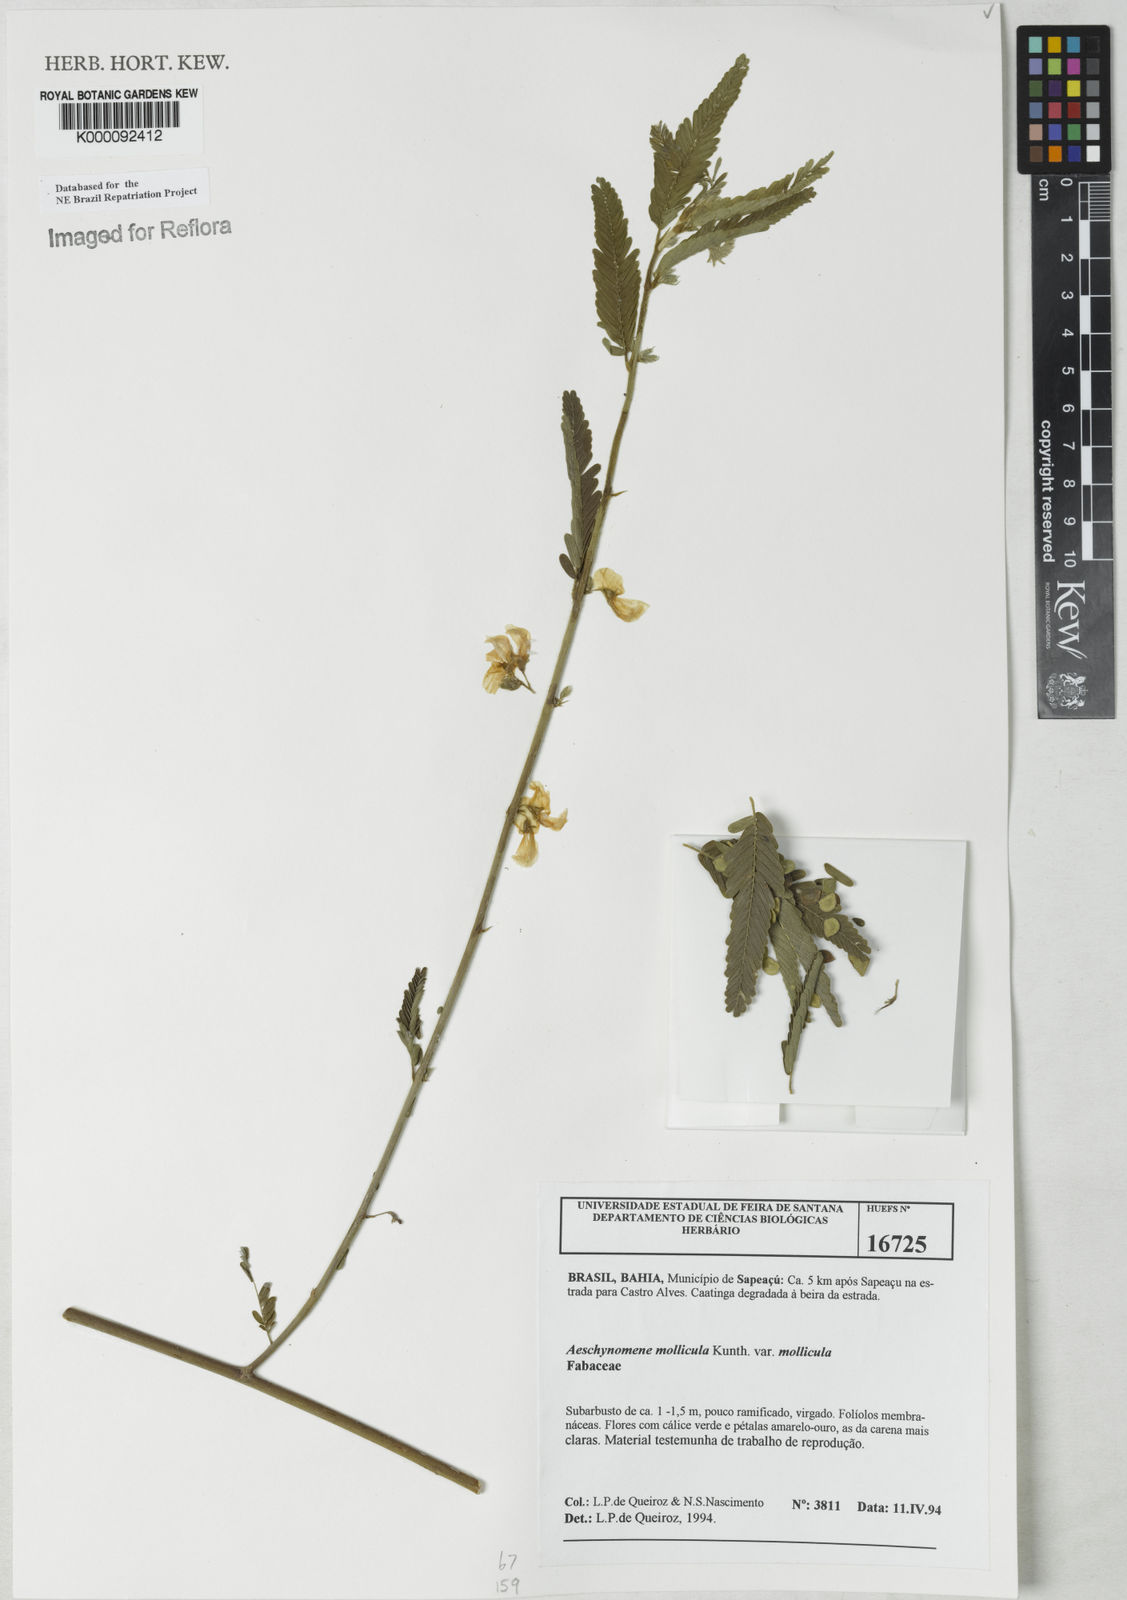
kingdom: Plantae
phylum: Tracheophyta
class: Magnoliopsida
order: Fabales
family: Fabaceae
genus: Ctenodon
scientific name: Ctenodon molliculus
